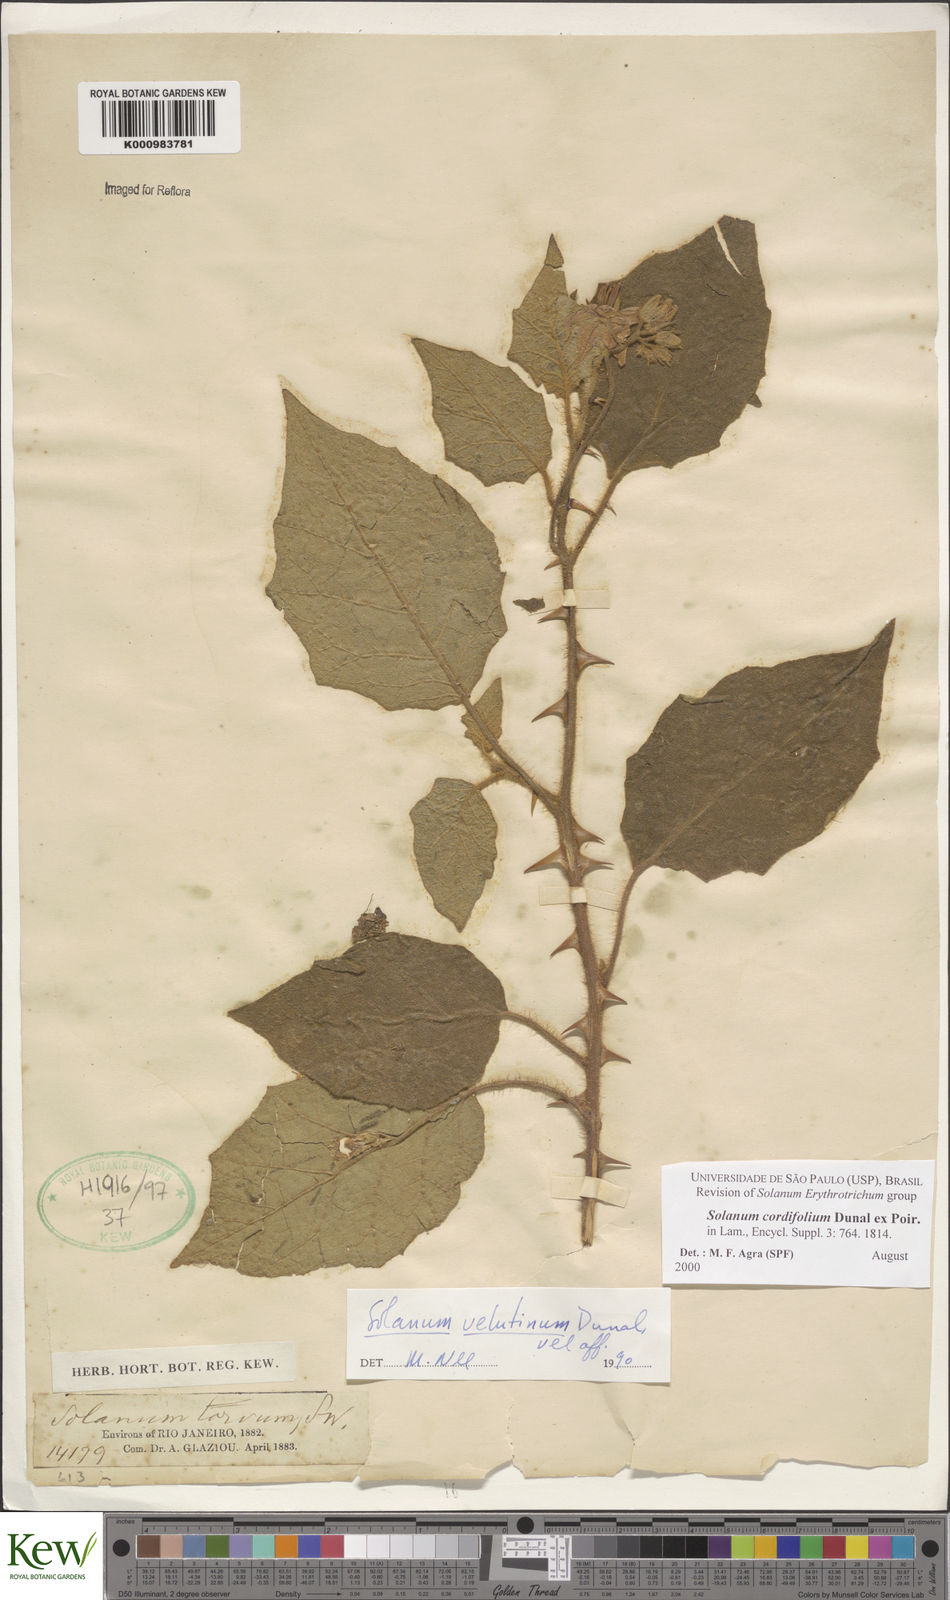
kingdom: Plantae
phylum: Tracheophyta
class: Magnoliopsida
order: Solanales
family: Solanaceae
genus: Solanum
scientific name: Solanum cordifolium
